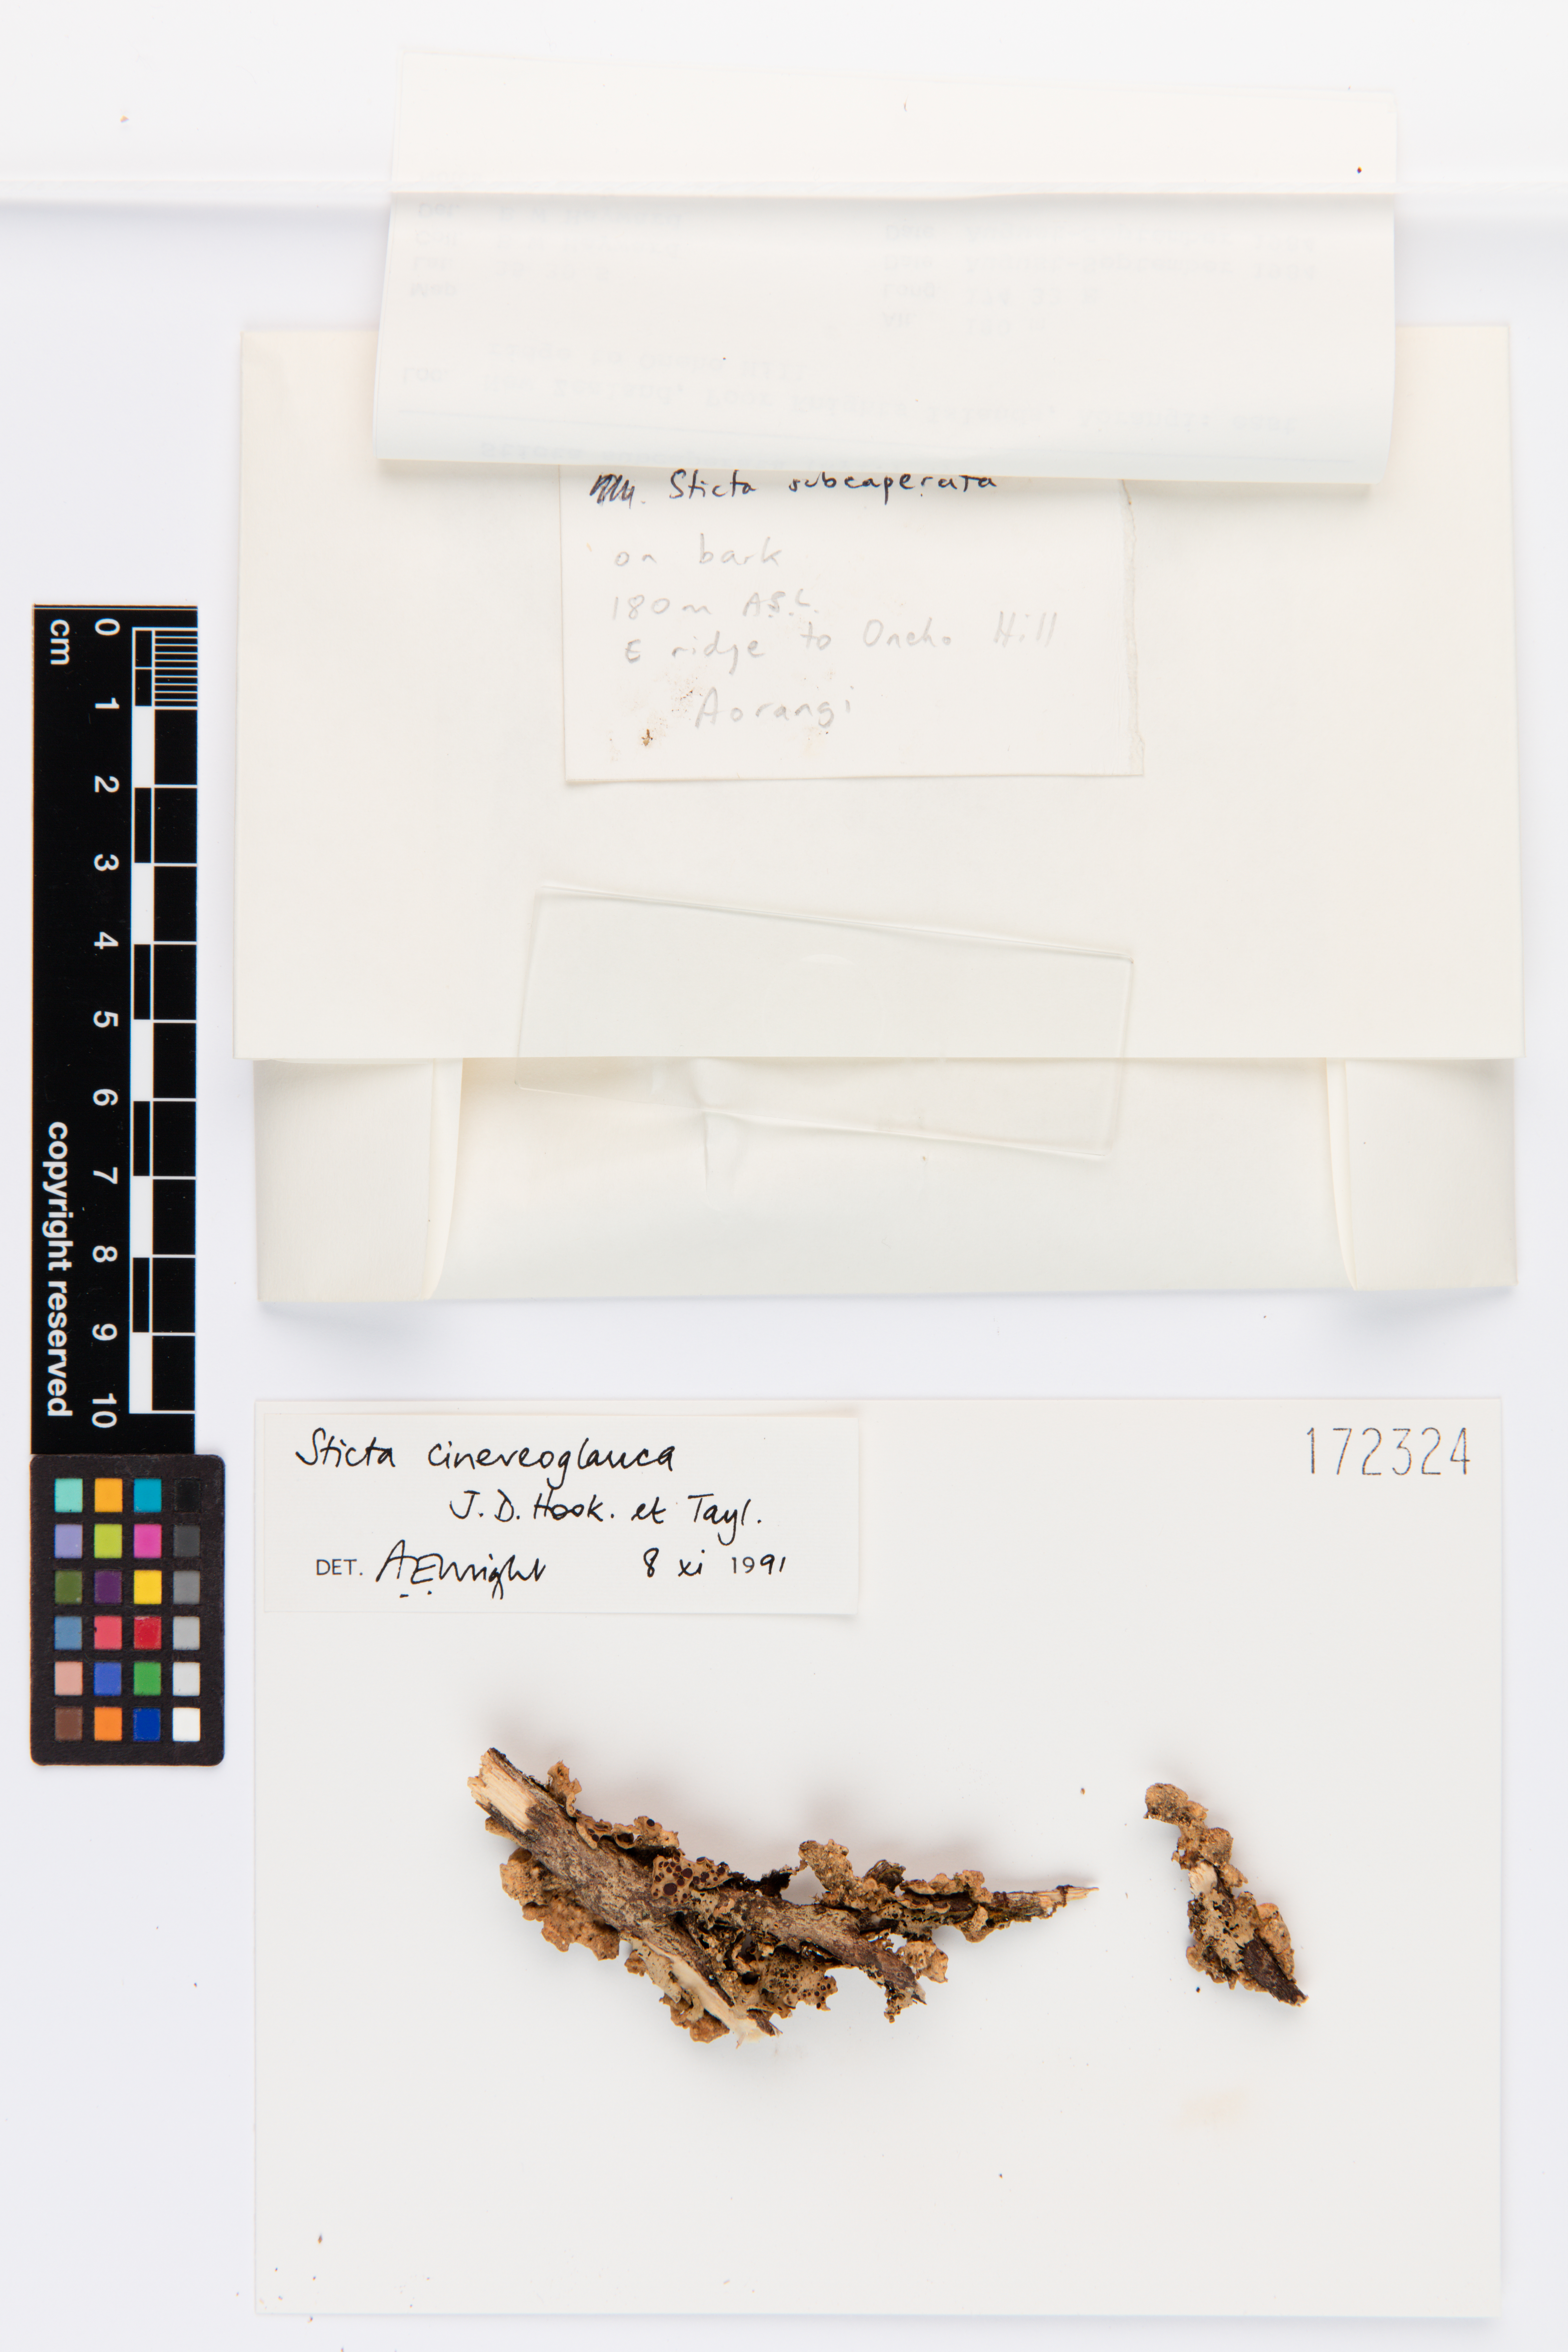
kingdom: Fungi
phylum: Ascomycota
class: Lecanoromycetes
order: Peltigerales
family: Lobariaceae
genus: Sticta
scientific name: Sticta cinereoglauca
